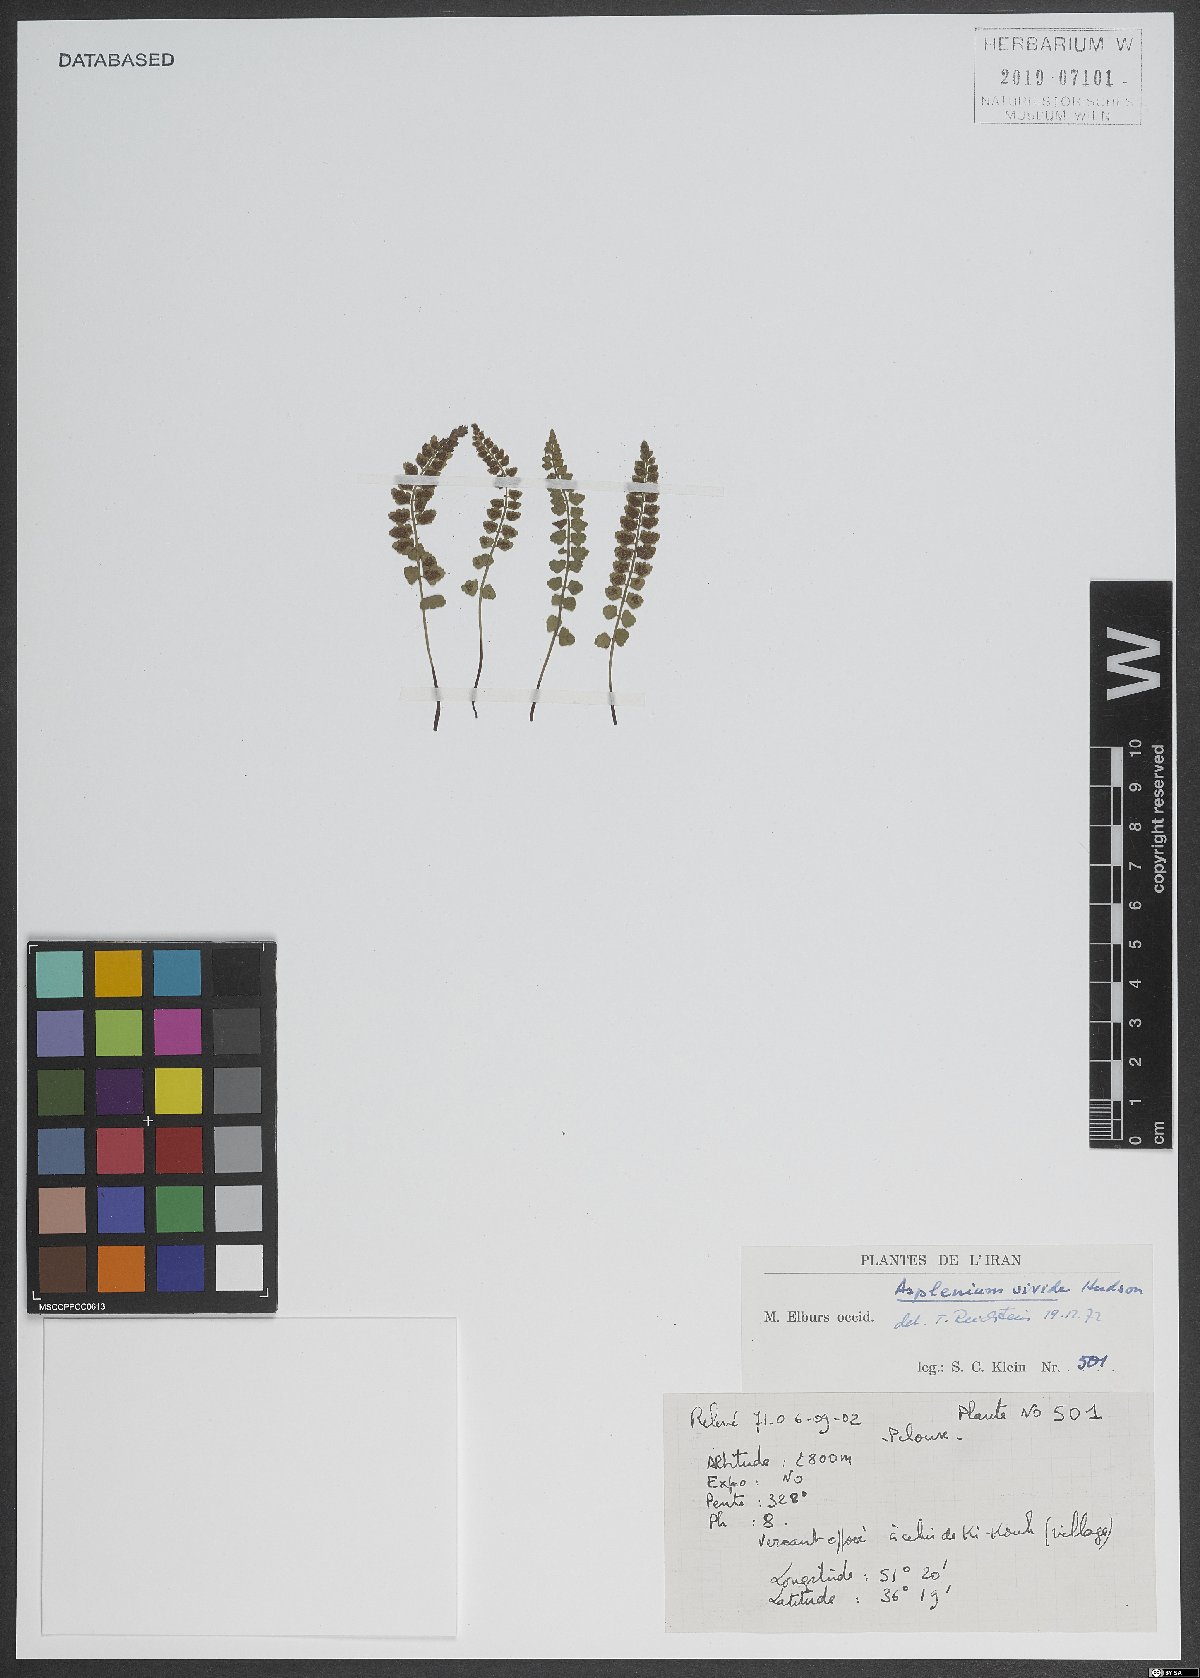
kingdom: Plantae
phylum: Tracheophyta
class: Polypodiopsida
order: Polypodiales
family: Aspleniaceae
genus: Asplenium
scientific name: Asplenium viride
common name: Green spleenwort
